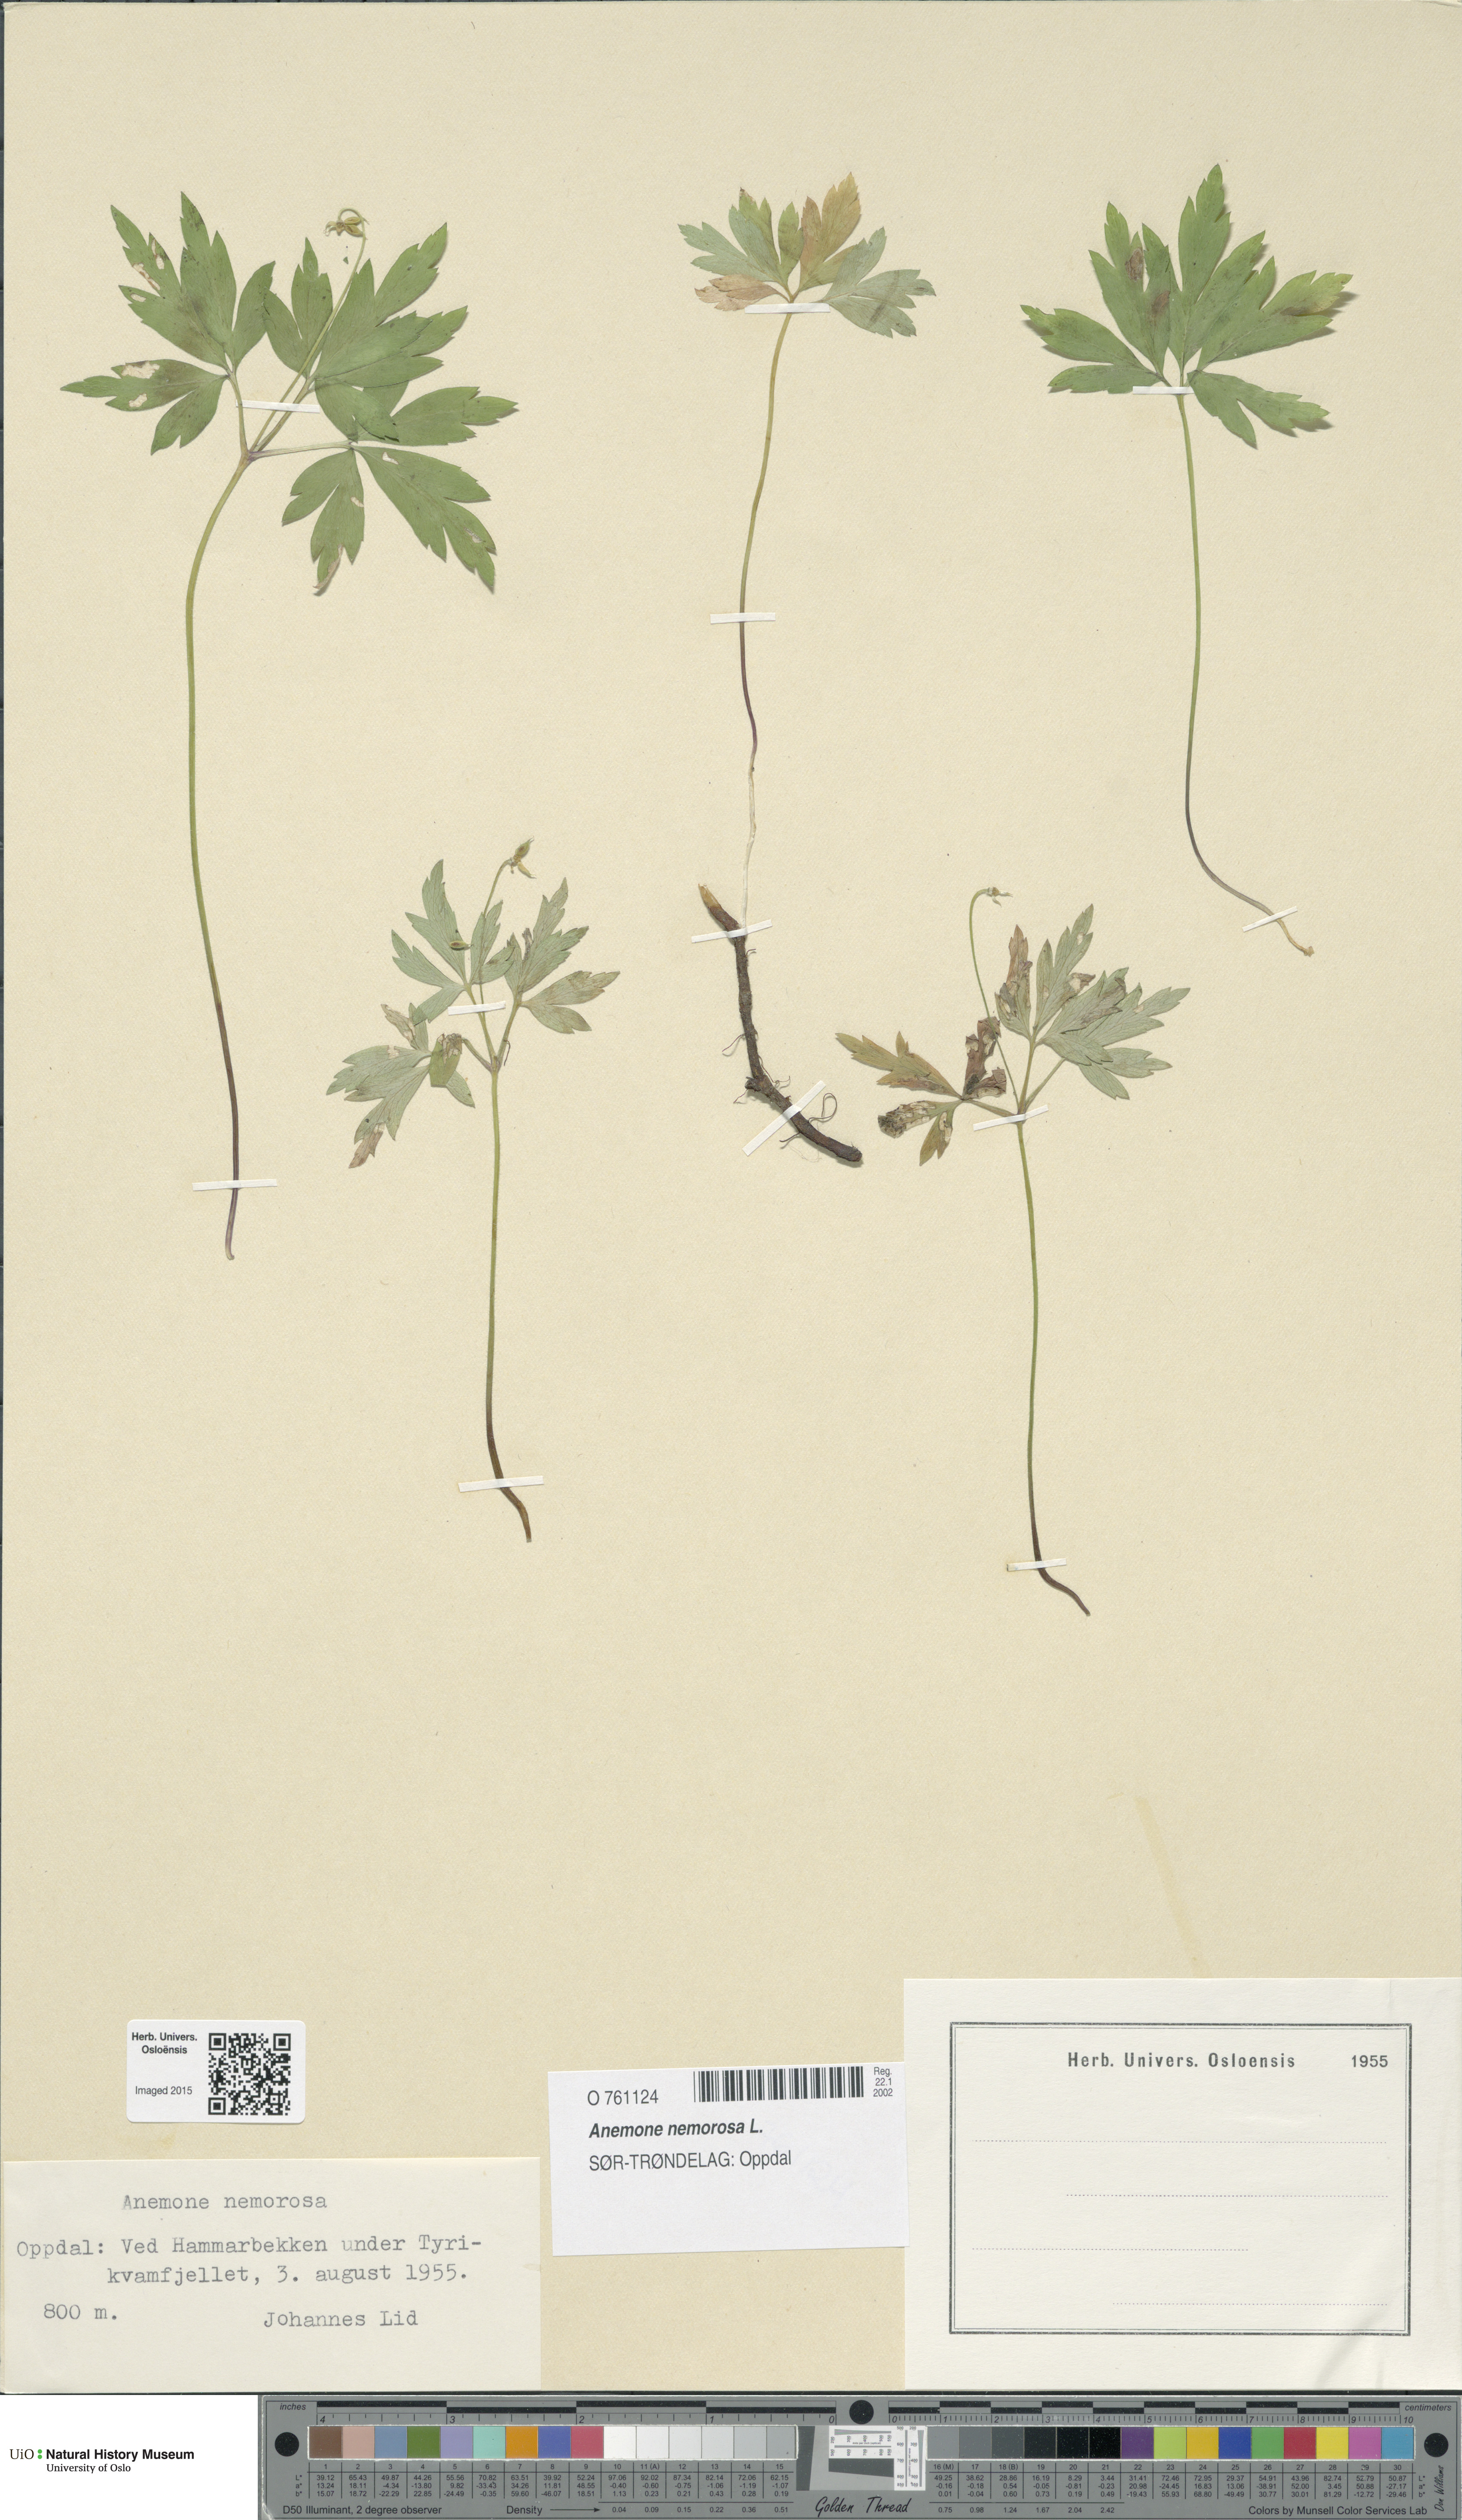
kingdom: Plantae
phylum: Tracheophyta
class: Magnoliopsida
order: Ranunculales
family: Ranunculaceae
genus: Anemone
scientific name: Anemone nemorosa
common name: Wood anemone
